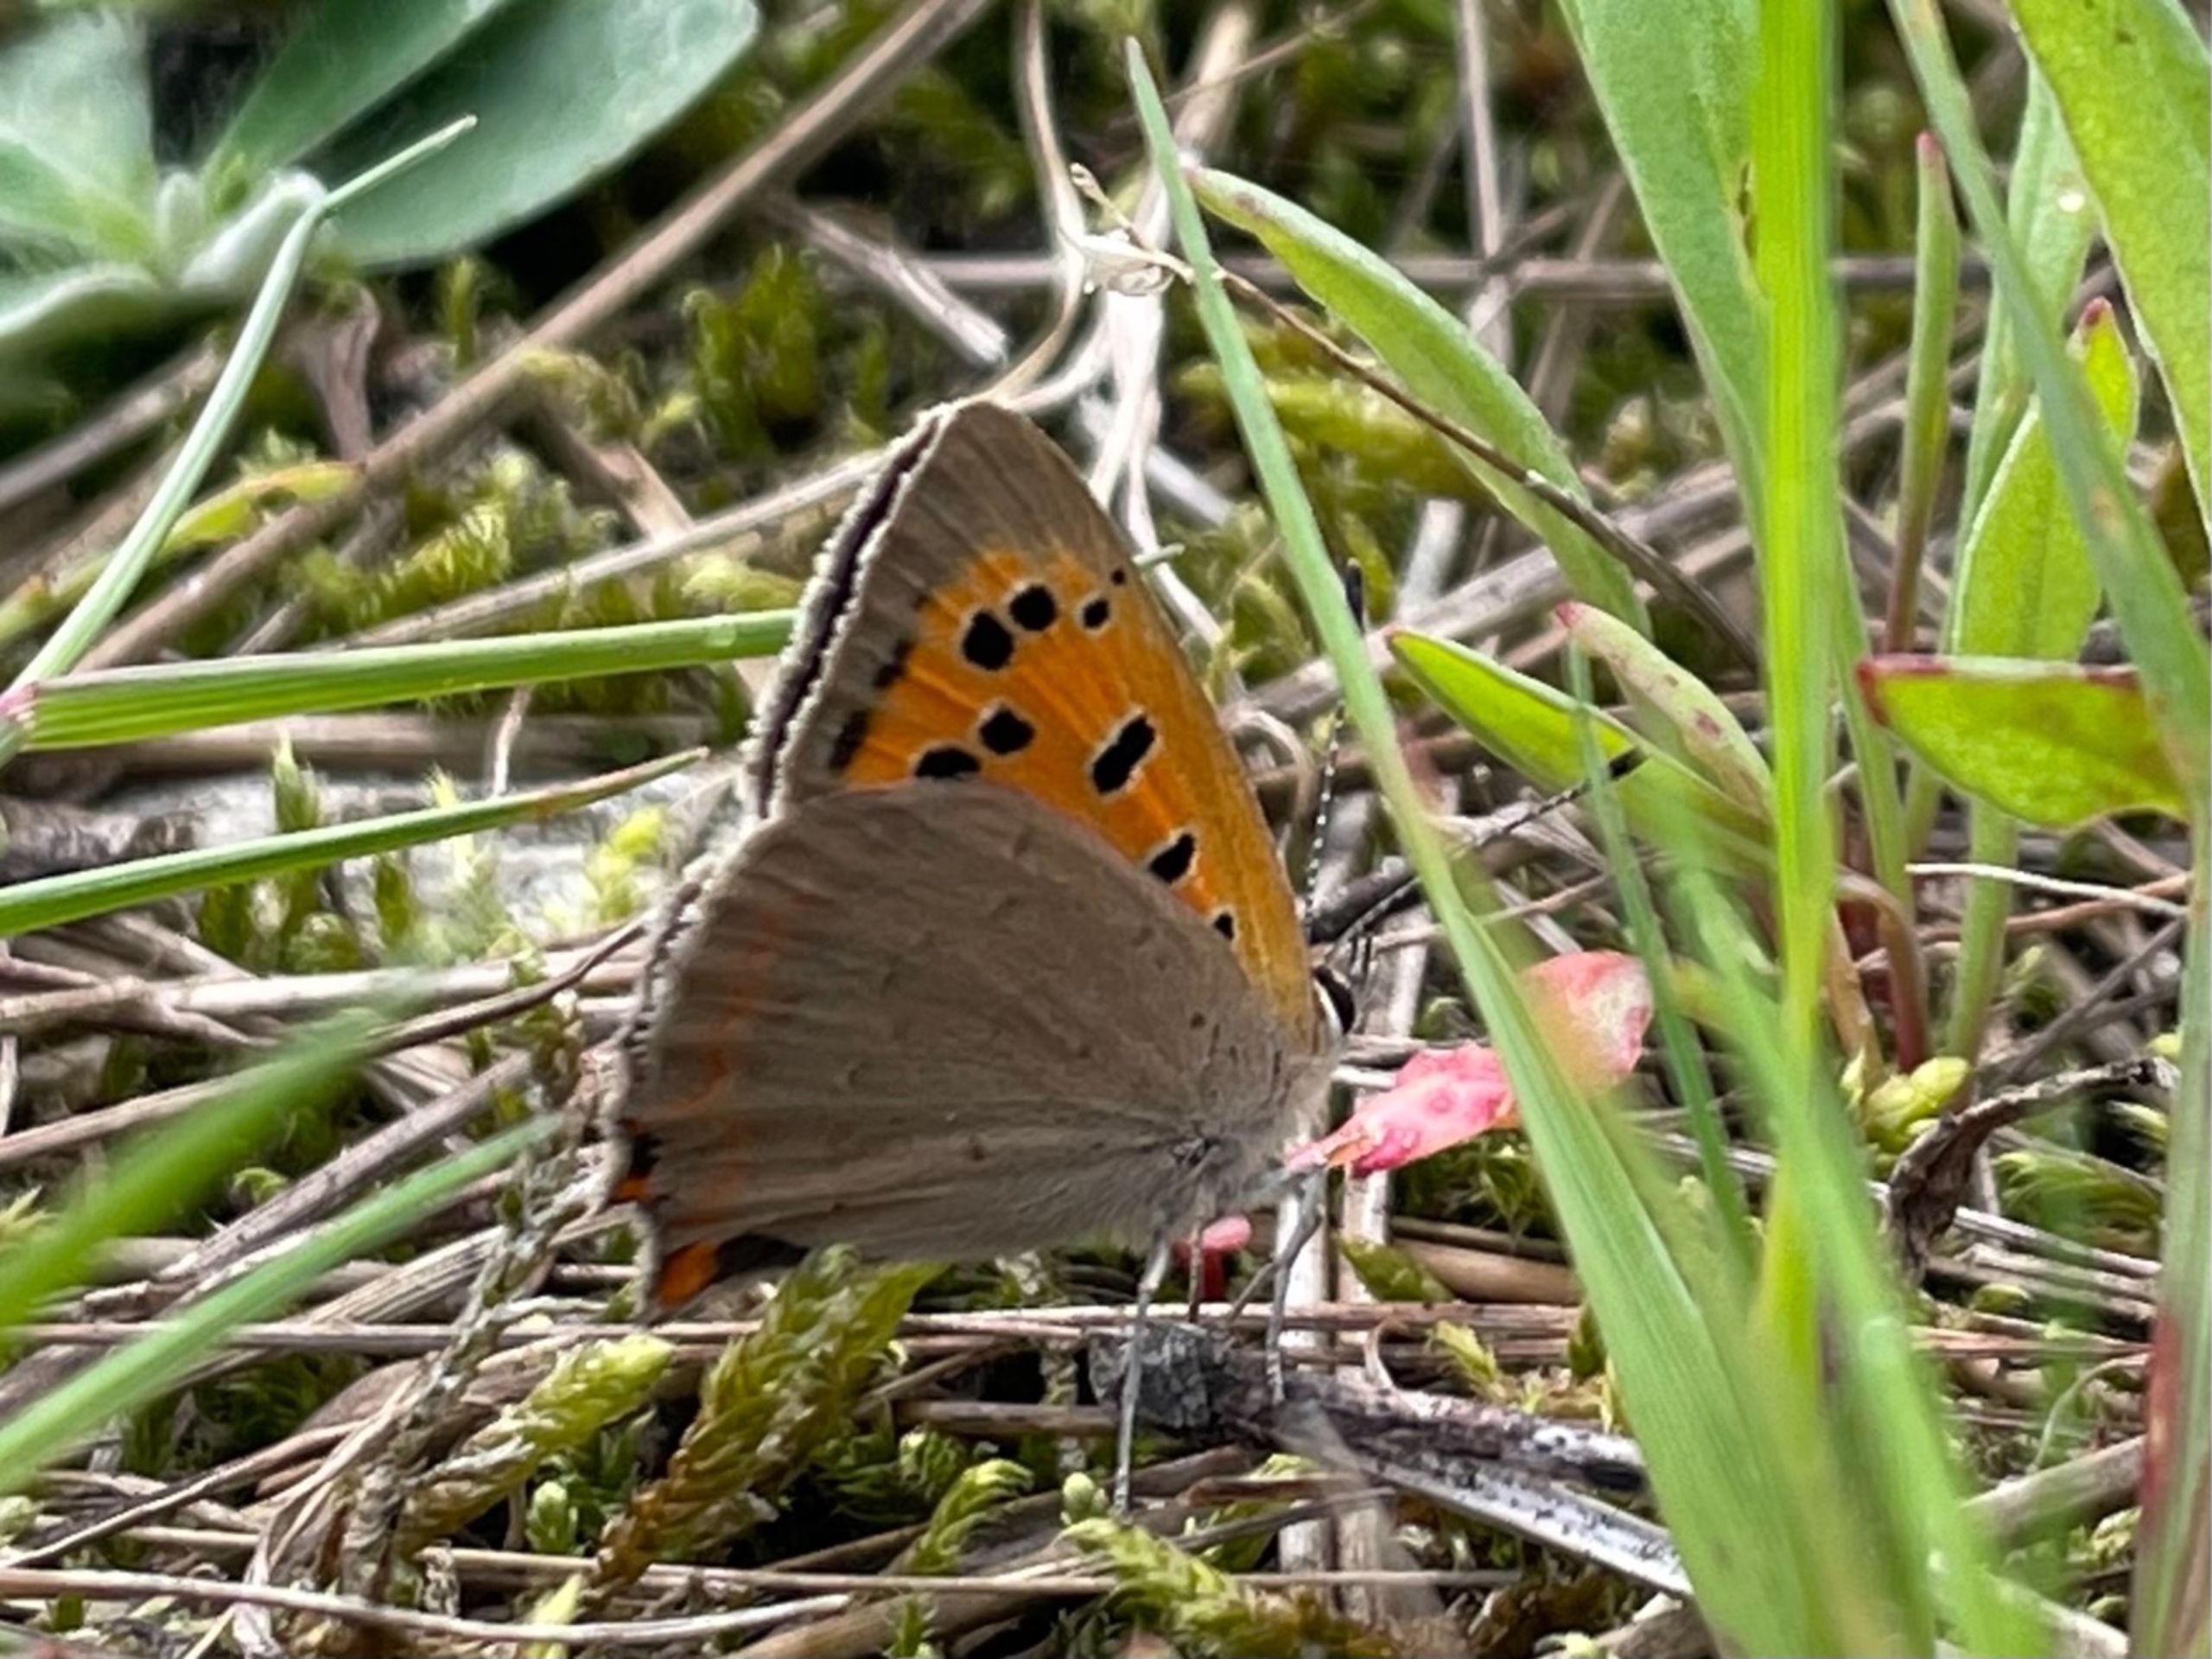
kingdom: Animalia
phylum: Arthropoda
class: Insecta
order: Lepidoptera
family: Lycaenidae
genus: Lycaena
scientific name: Lycaena phlaeas
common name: Lille ildfugl
